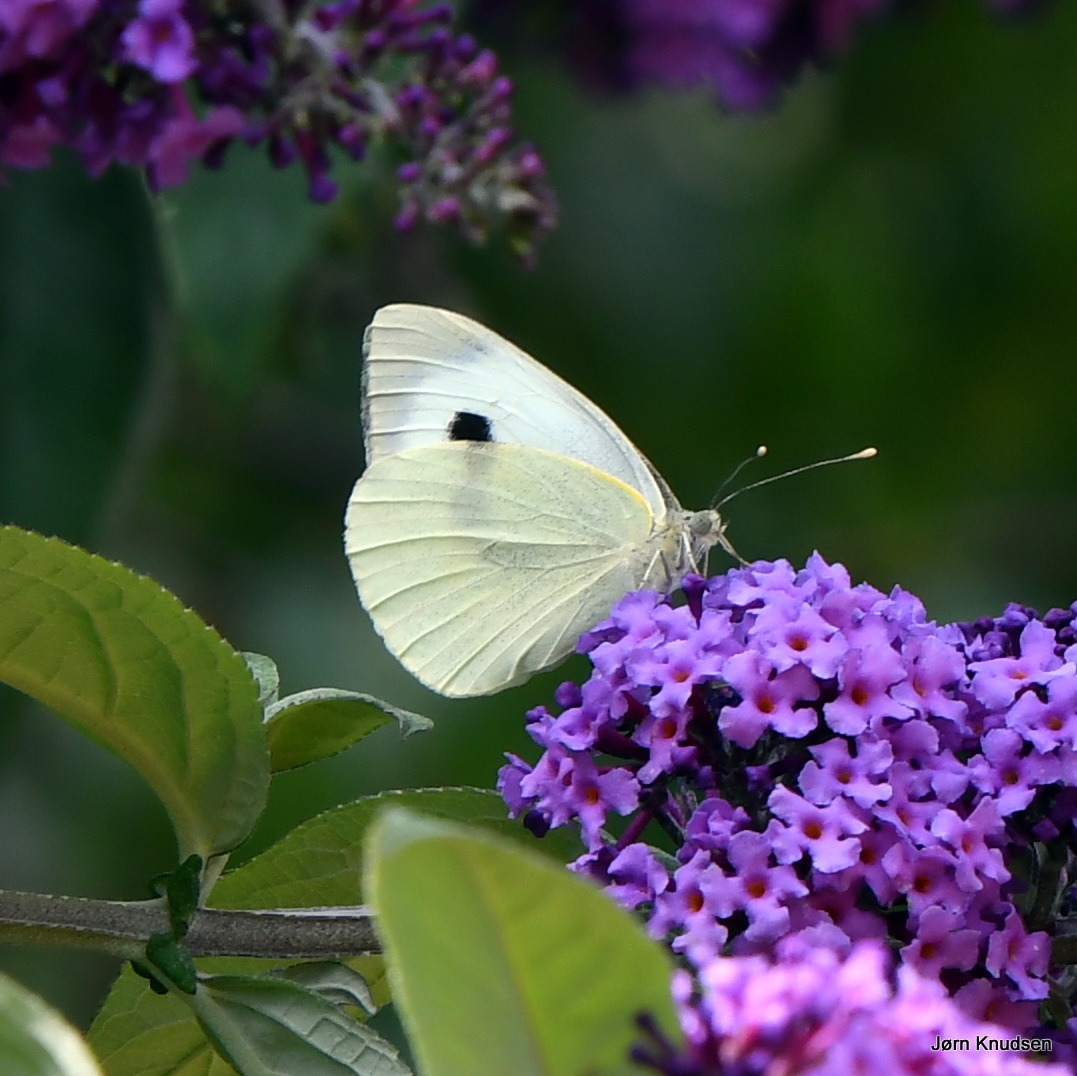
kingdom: Animalia
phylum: Arthropoda
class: Insecta
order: Lepidoptera
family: Pieridae
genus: Pieris
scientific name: Pieris brassicae
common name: Stor kålsommerfugl
